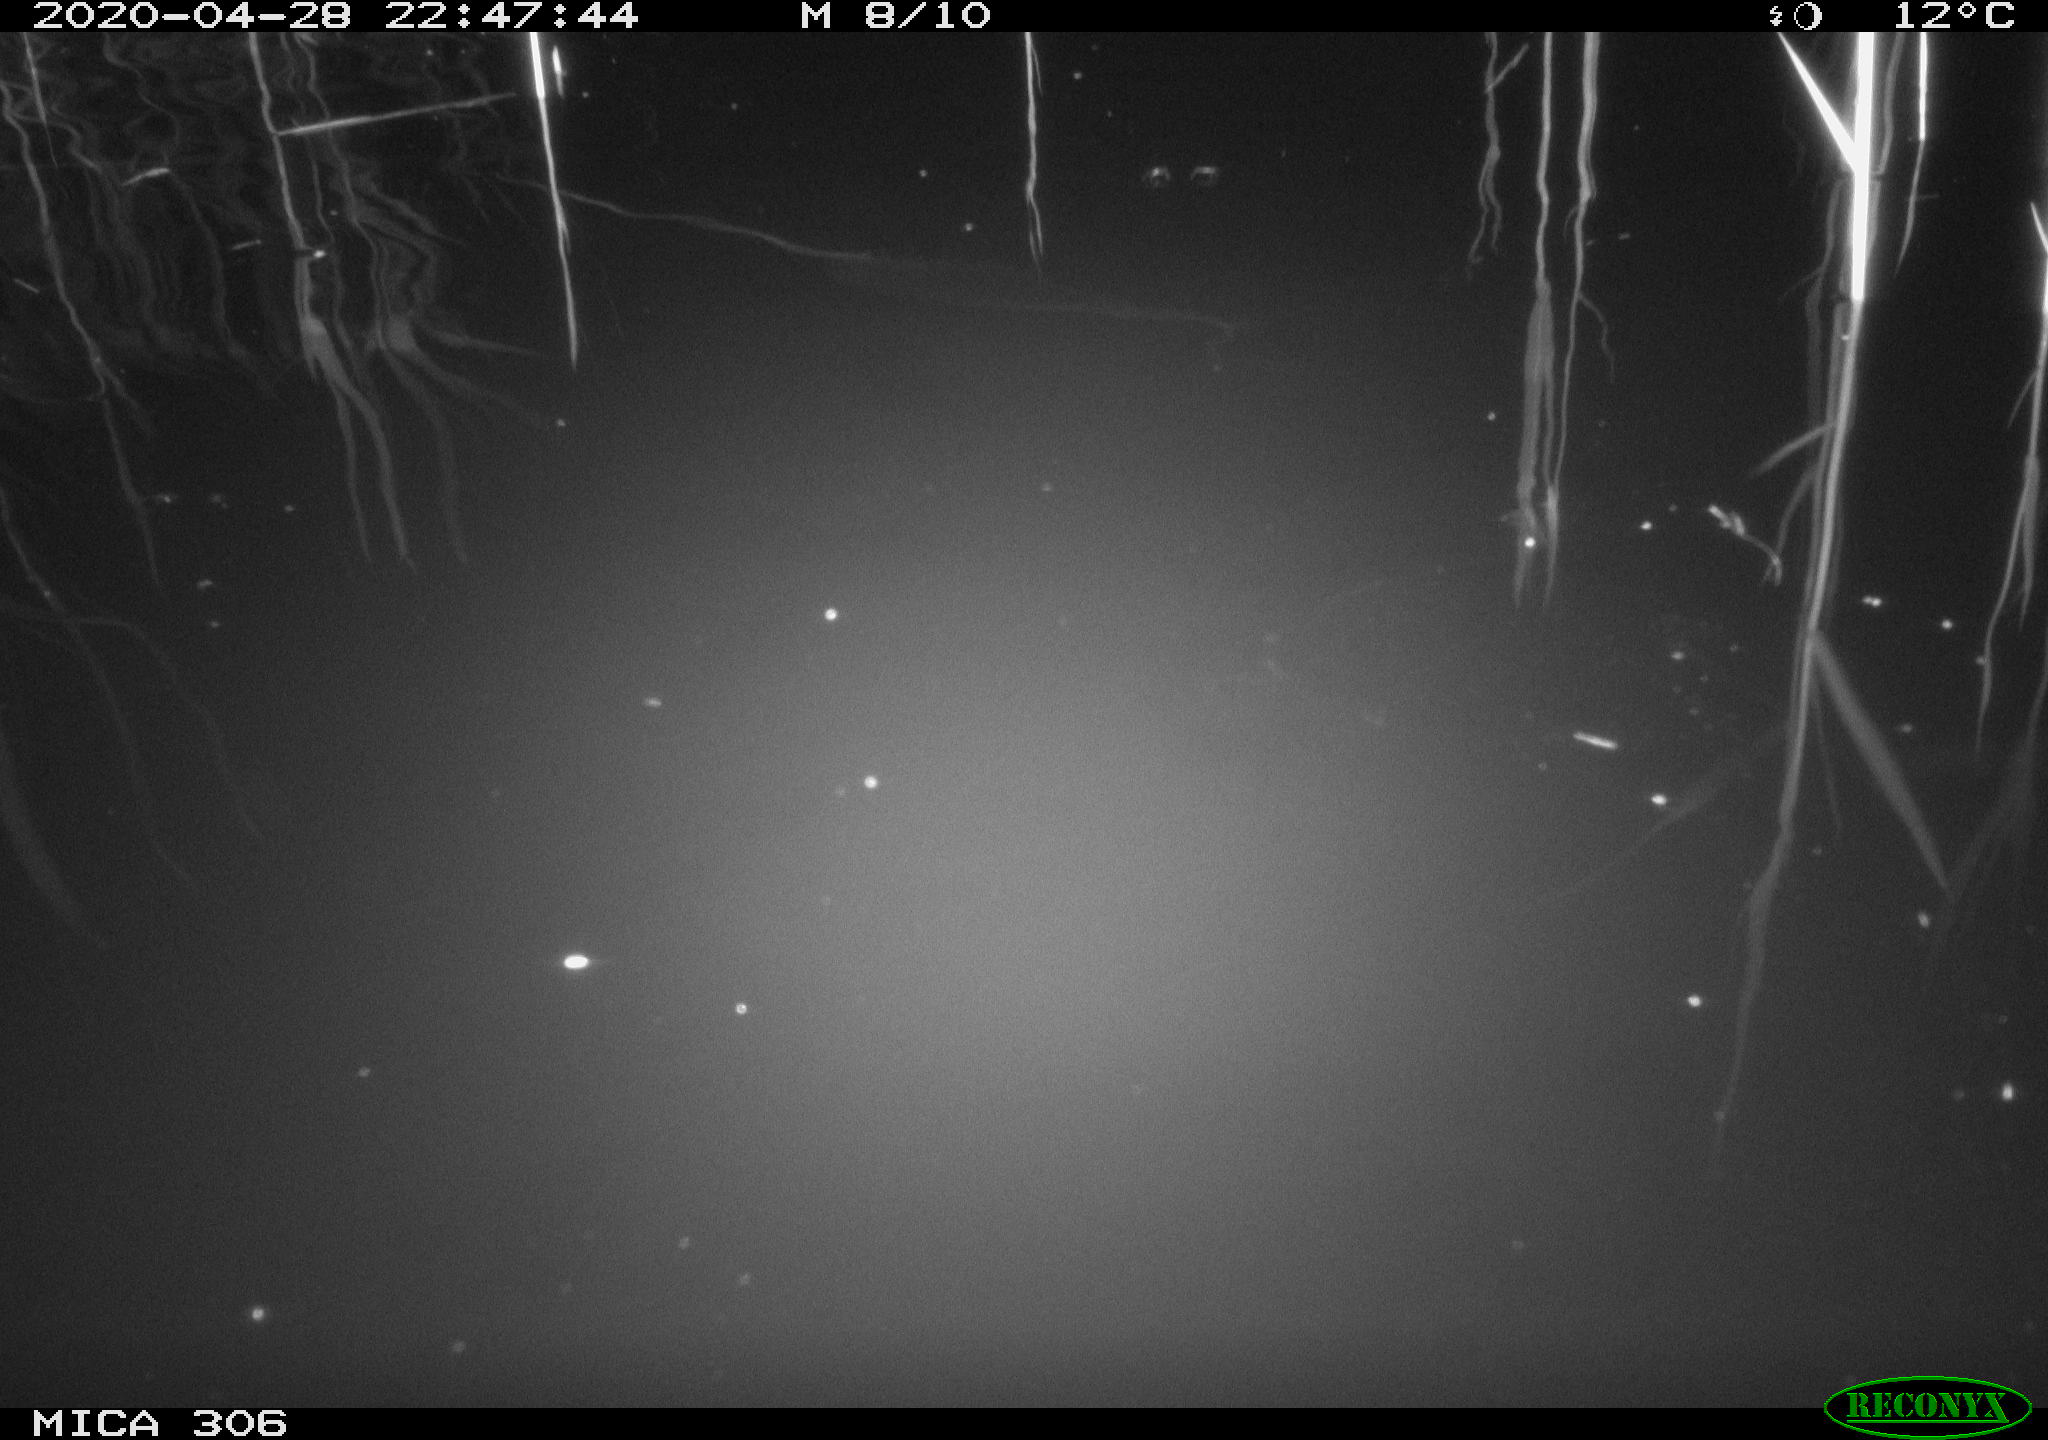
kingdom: Animalia
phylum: Chordata
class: Mammalia
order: Rodentia
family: Cricetidae
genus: Ondatra
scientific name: Ondatra zibethicus
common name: Muskrat
